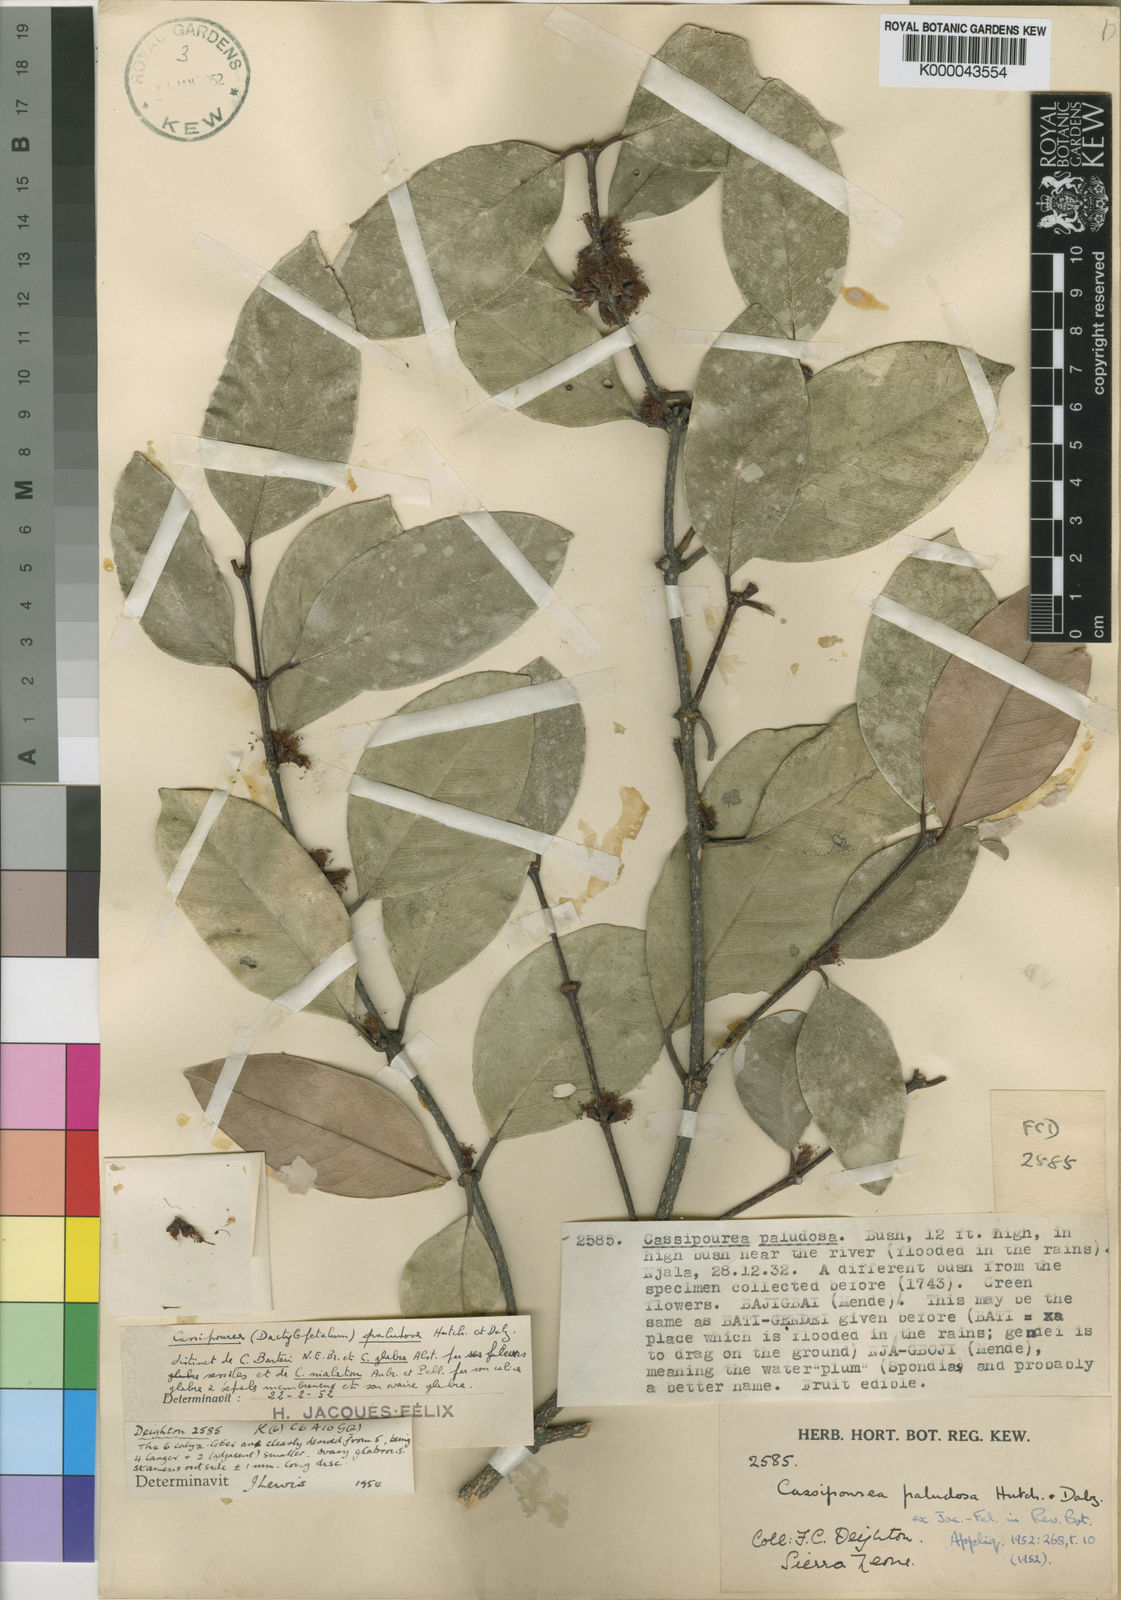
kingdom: Plantae
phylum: Tracheophyta
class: Magnoliopsida
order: Malpighiales
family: Rhizophoraceae
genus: Cassipourea
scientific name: Cassipourea
